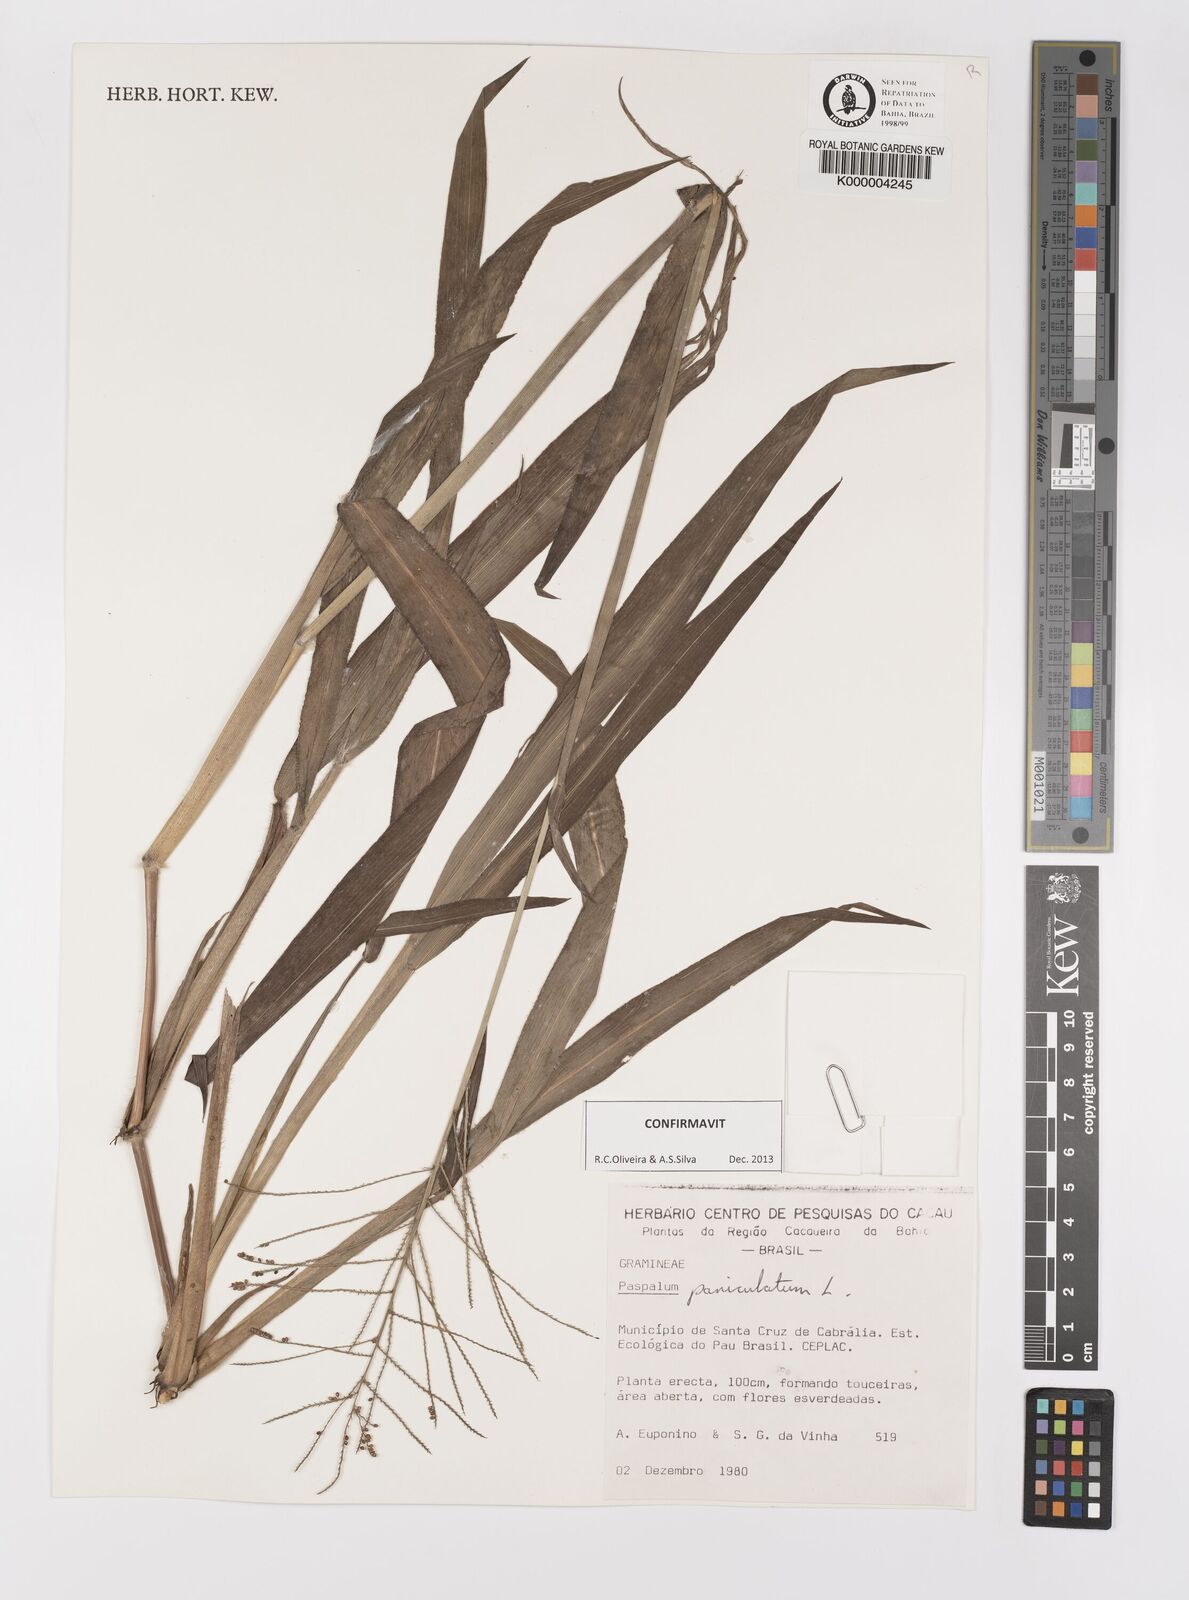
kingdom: Plantae
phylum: Tracheophyta
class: Liliopsida
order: Poales
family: Poaceae
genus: Paspalum
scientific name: Paspalum paniculatum
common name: Arrocillo
